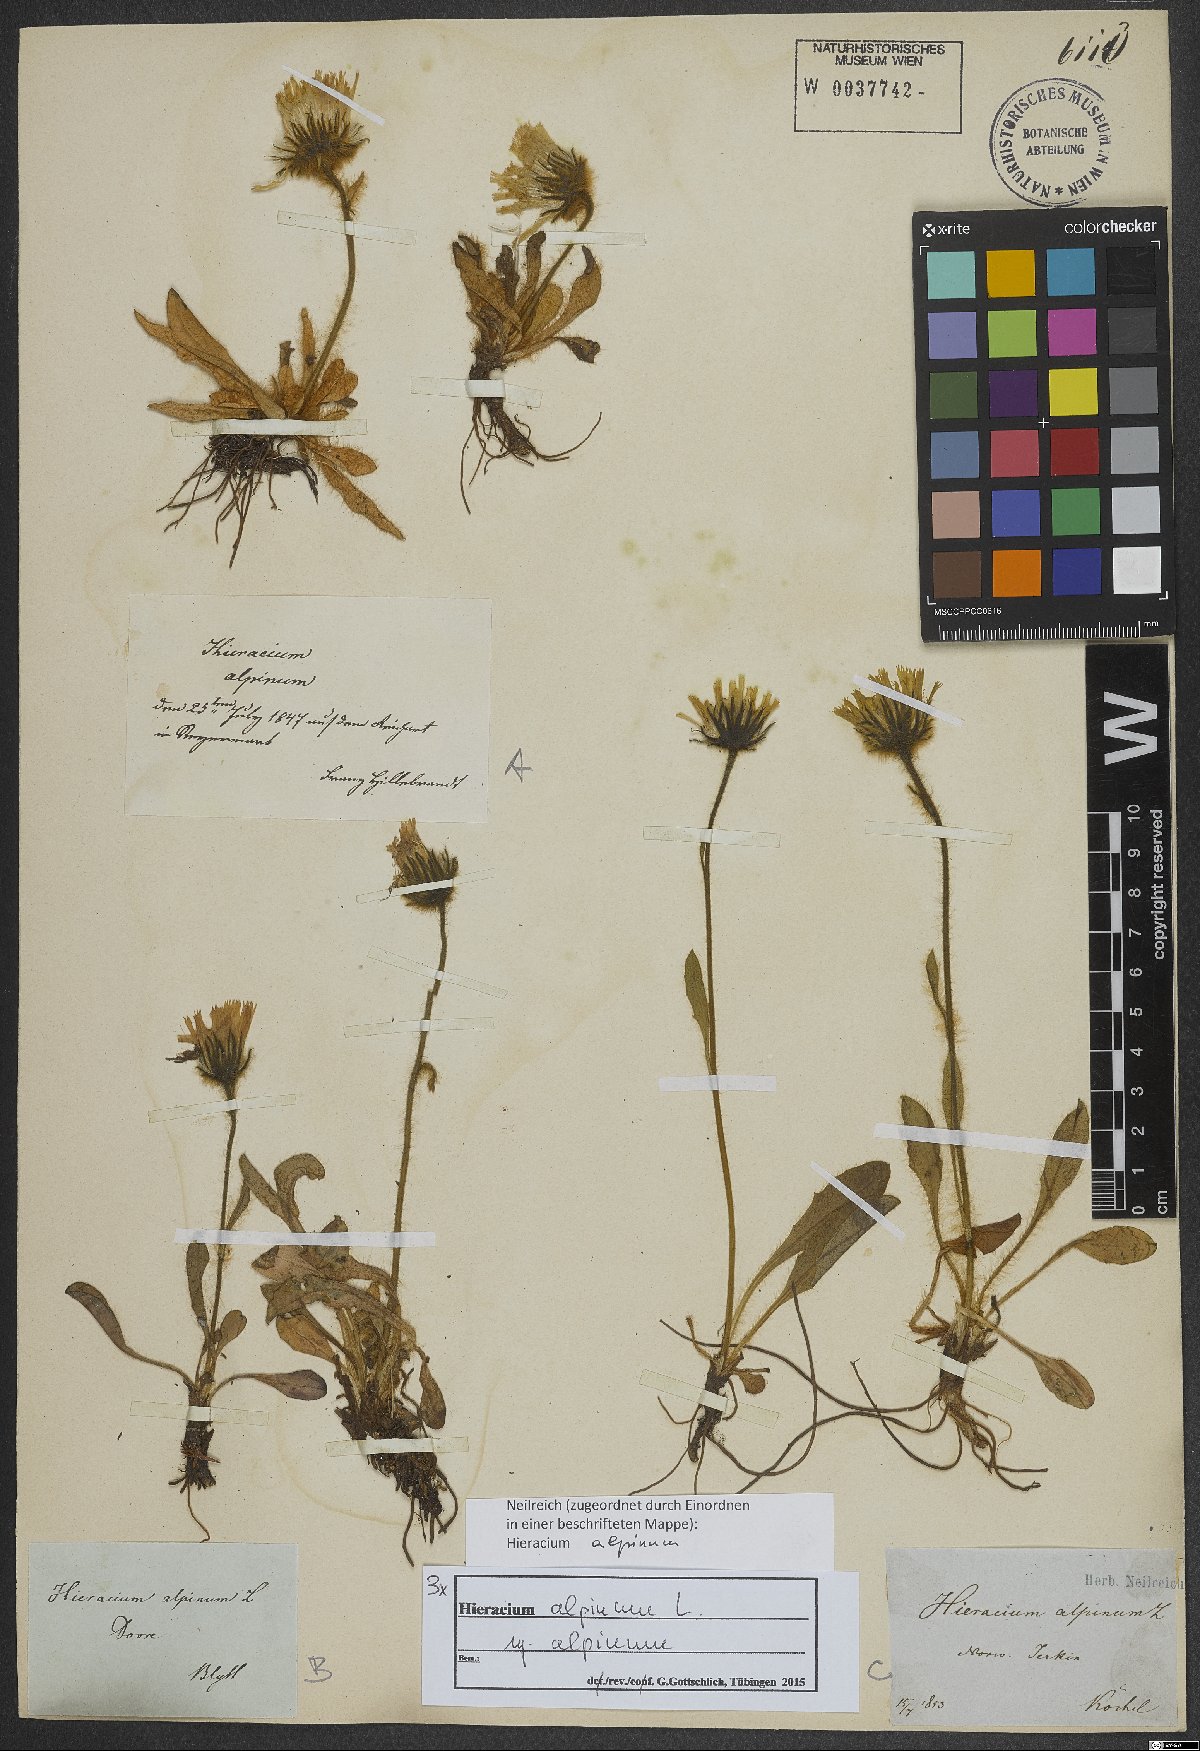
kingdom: Plantae
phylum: Tracheophyta
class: Magnoliopsida
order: Asterales
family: Asteraceae
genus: Hieracium
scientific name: Hieracium alpinum
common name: Alpine hawkweed
